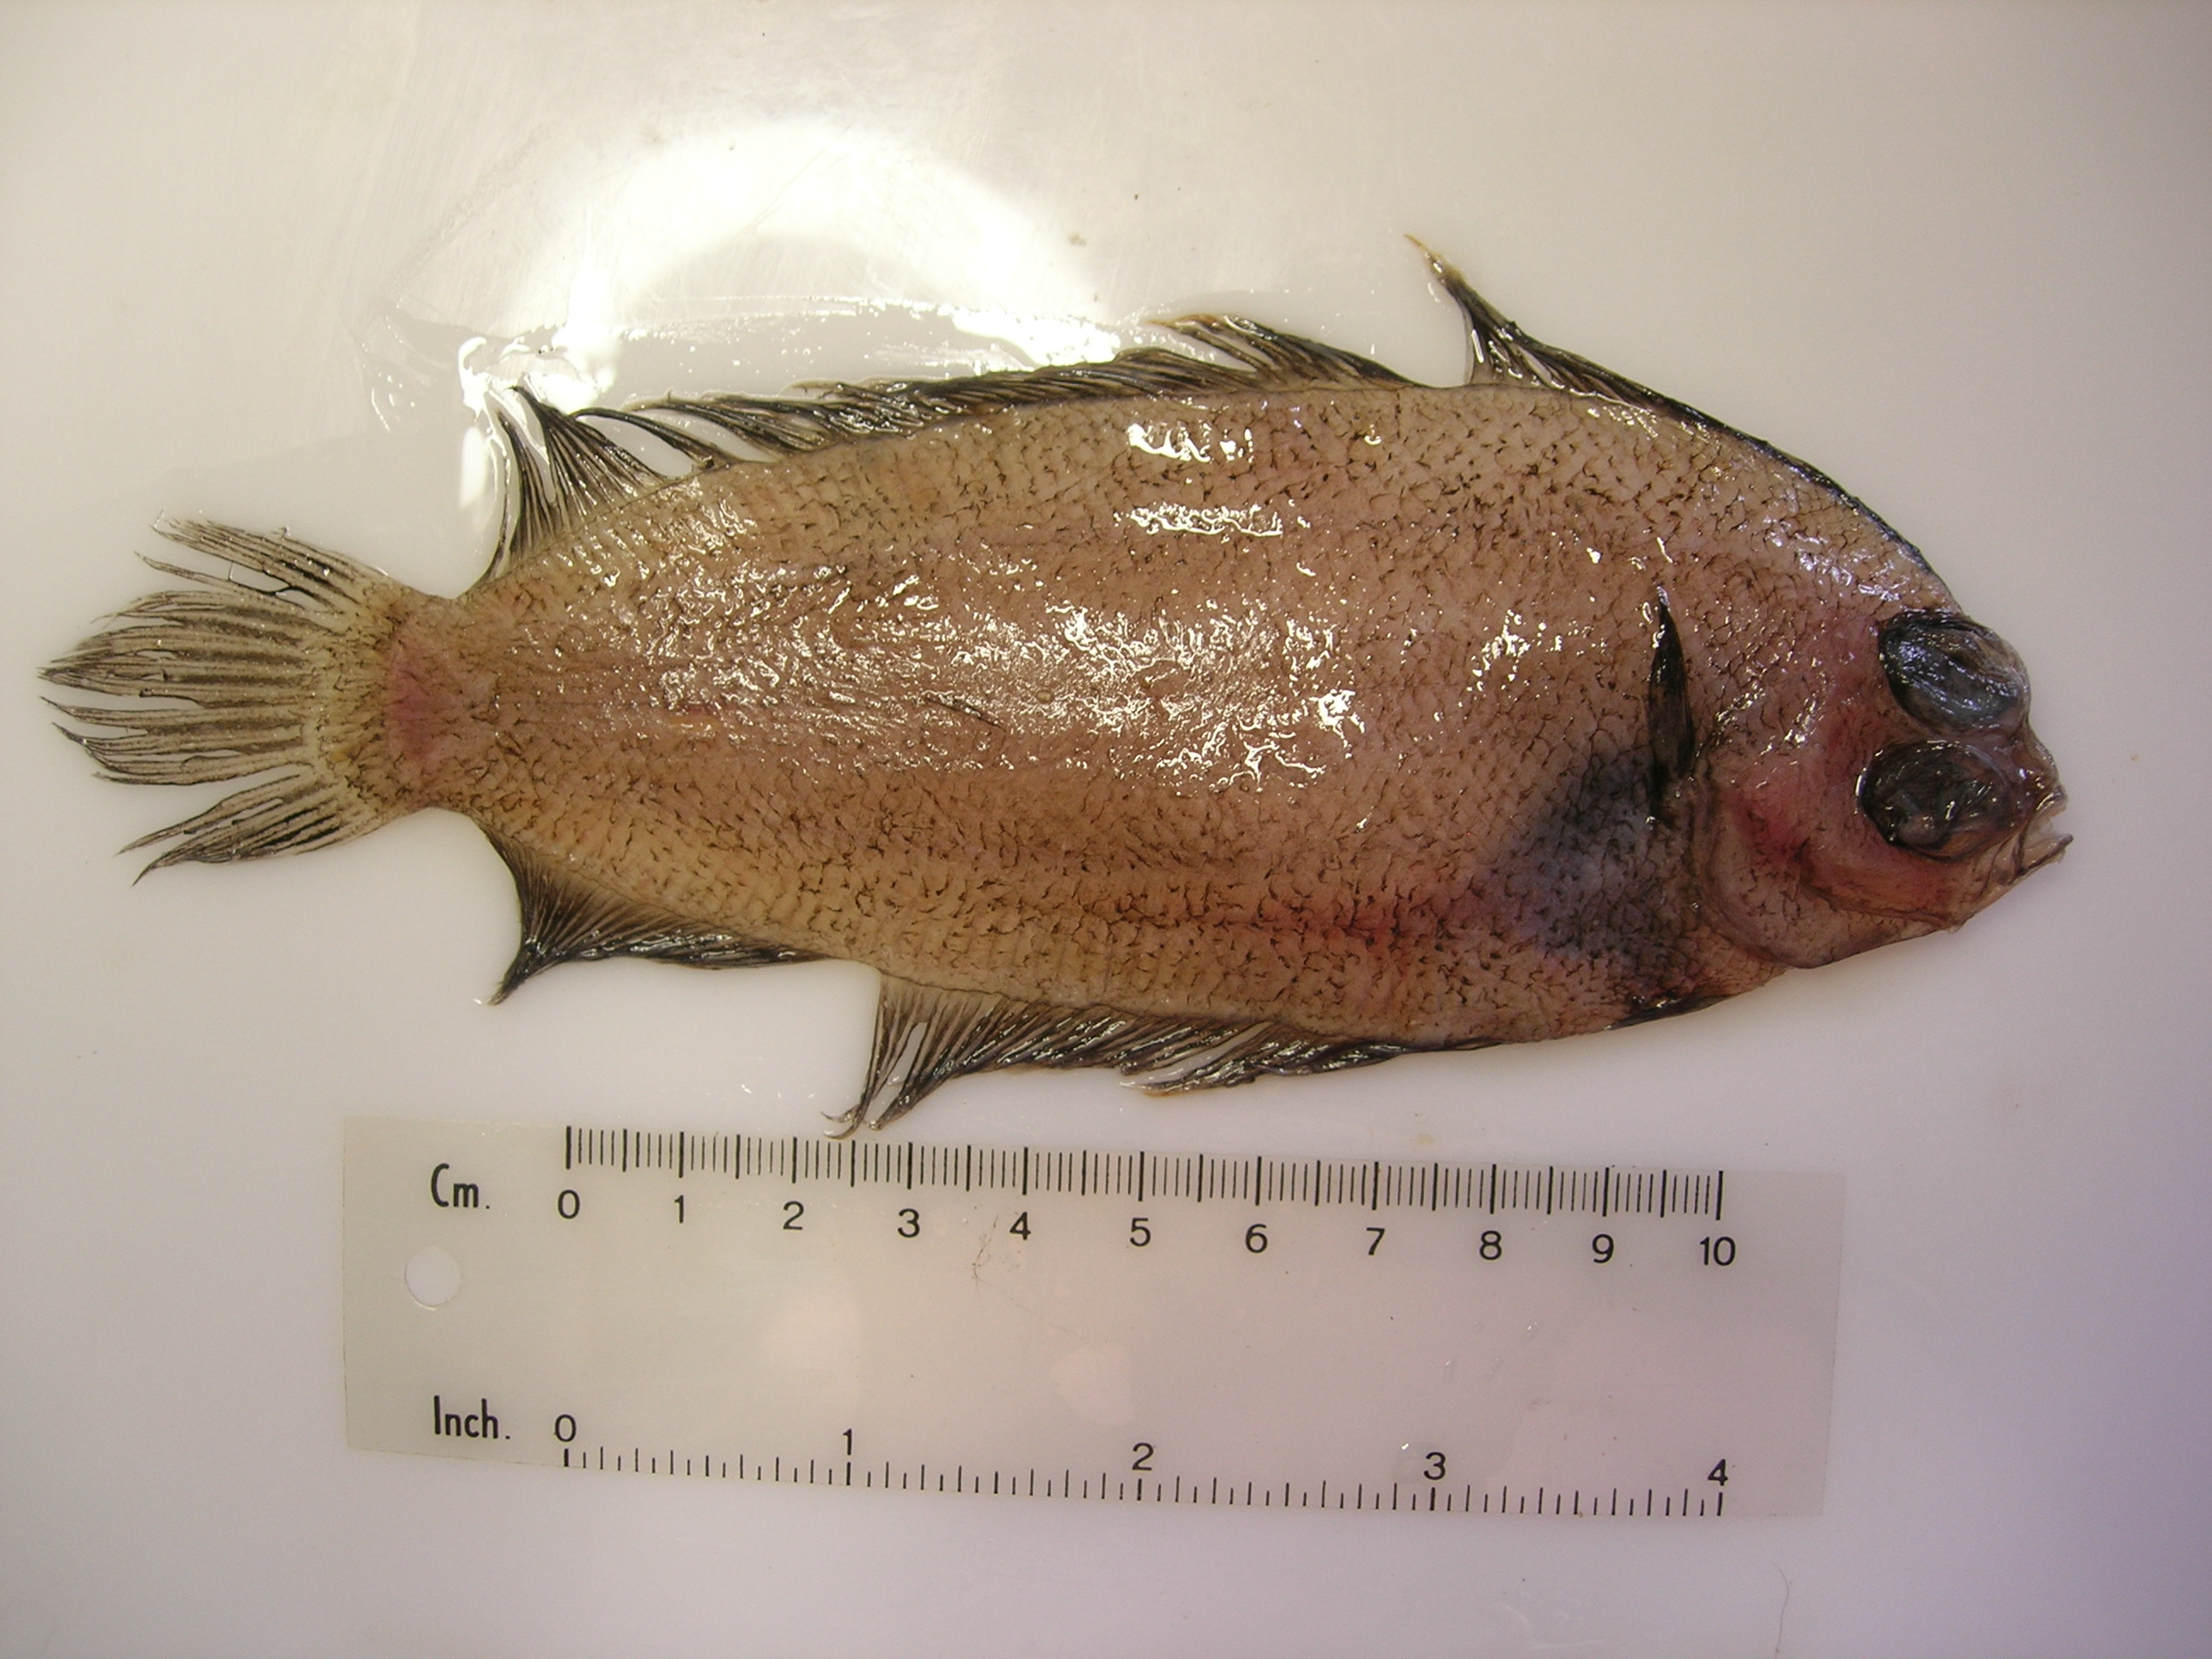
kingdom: Animalia
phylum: Chordata
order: Pleuronectiformes
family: Pleuronectidae
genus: Poecilopsetta
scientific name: Poecilopsetta natalensis
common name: African righteye flounder
